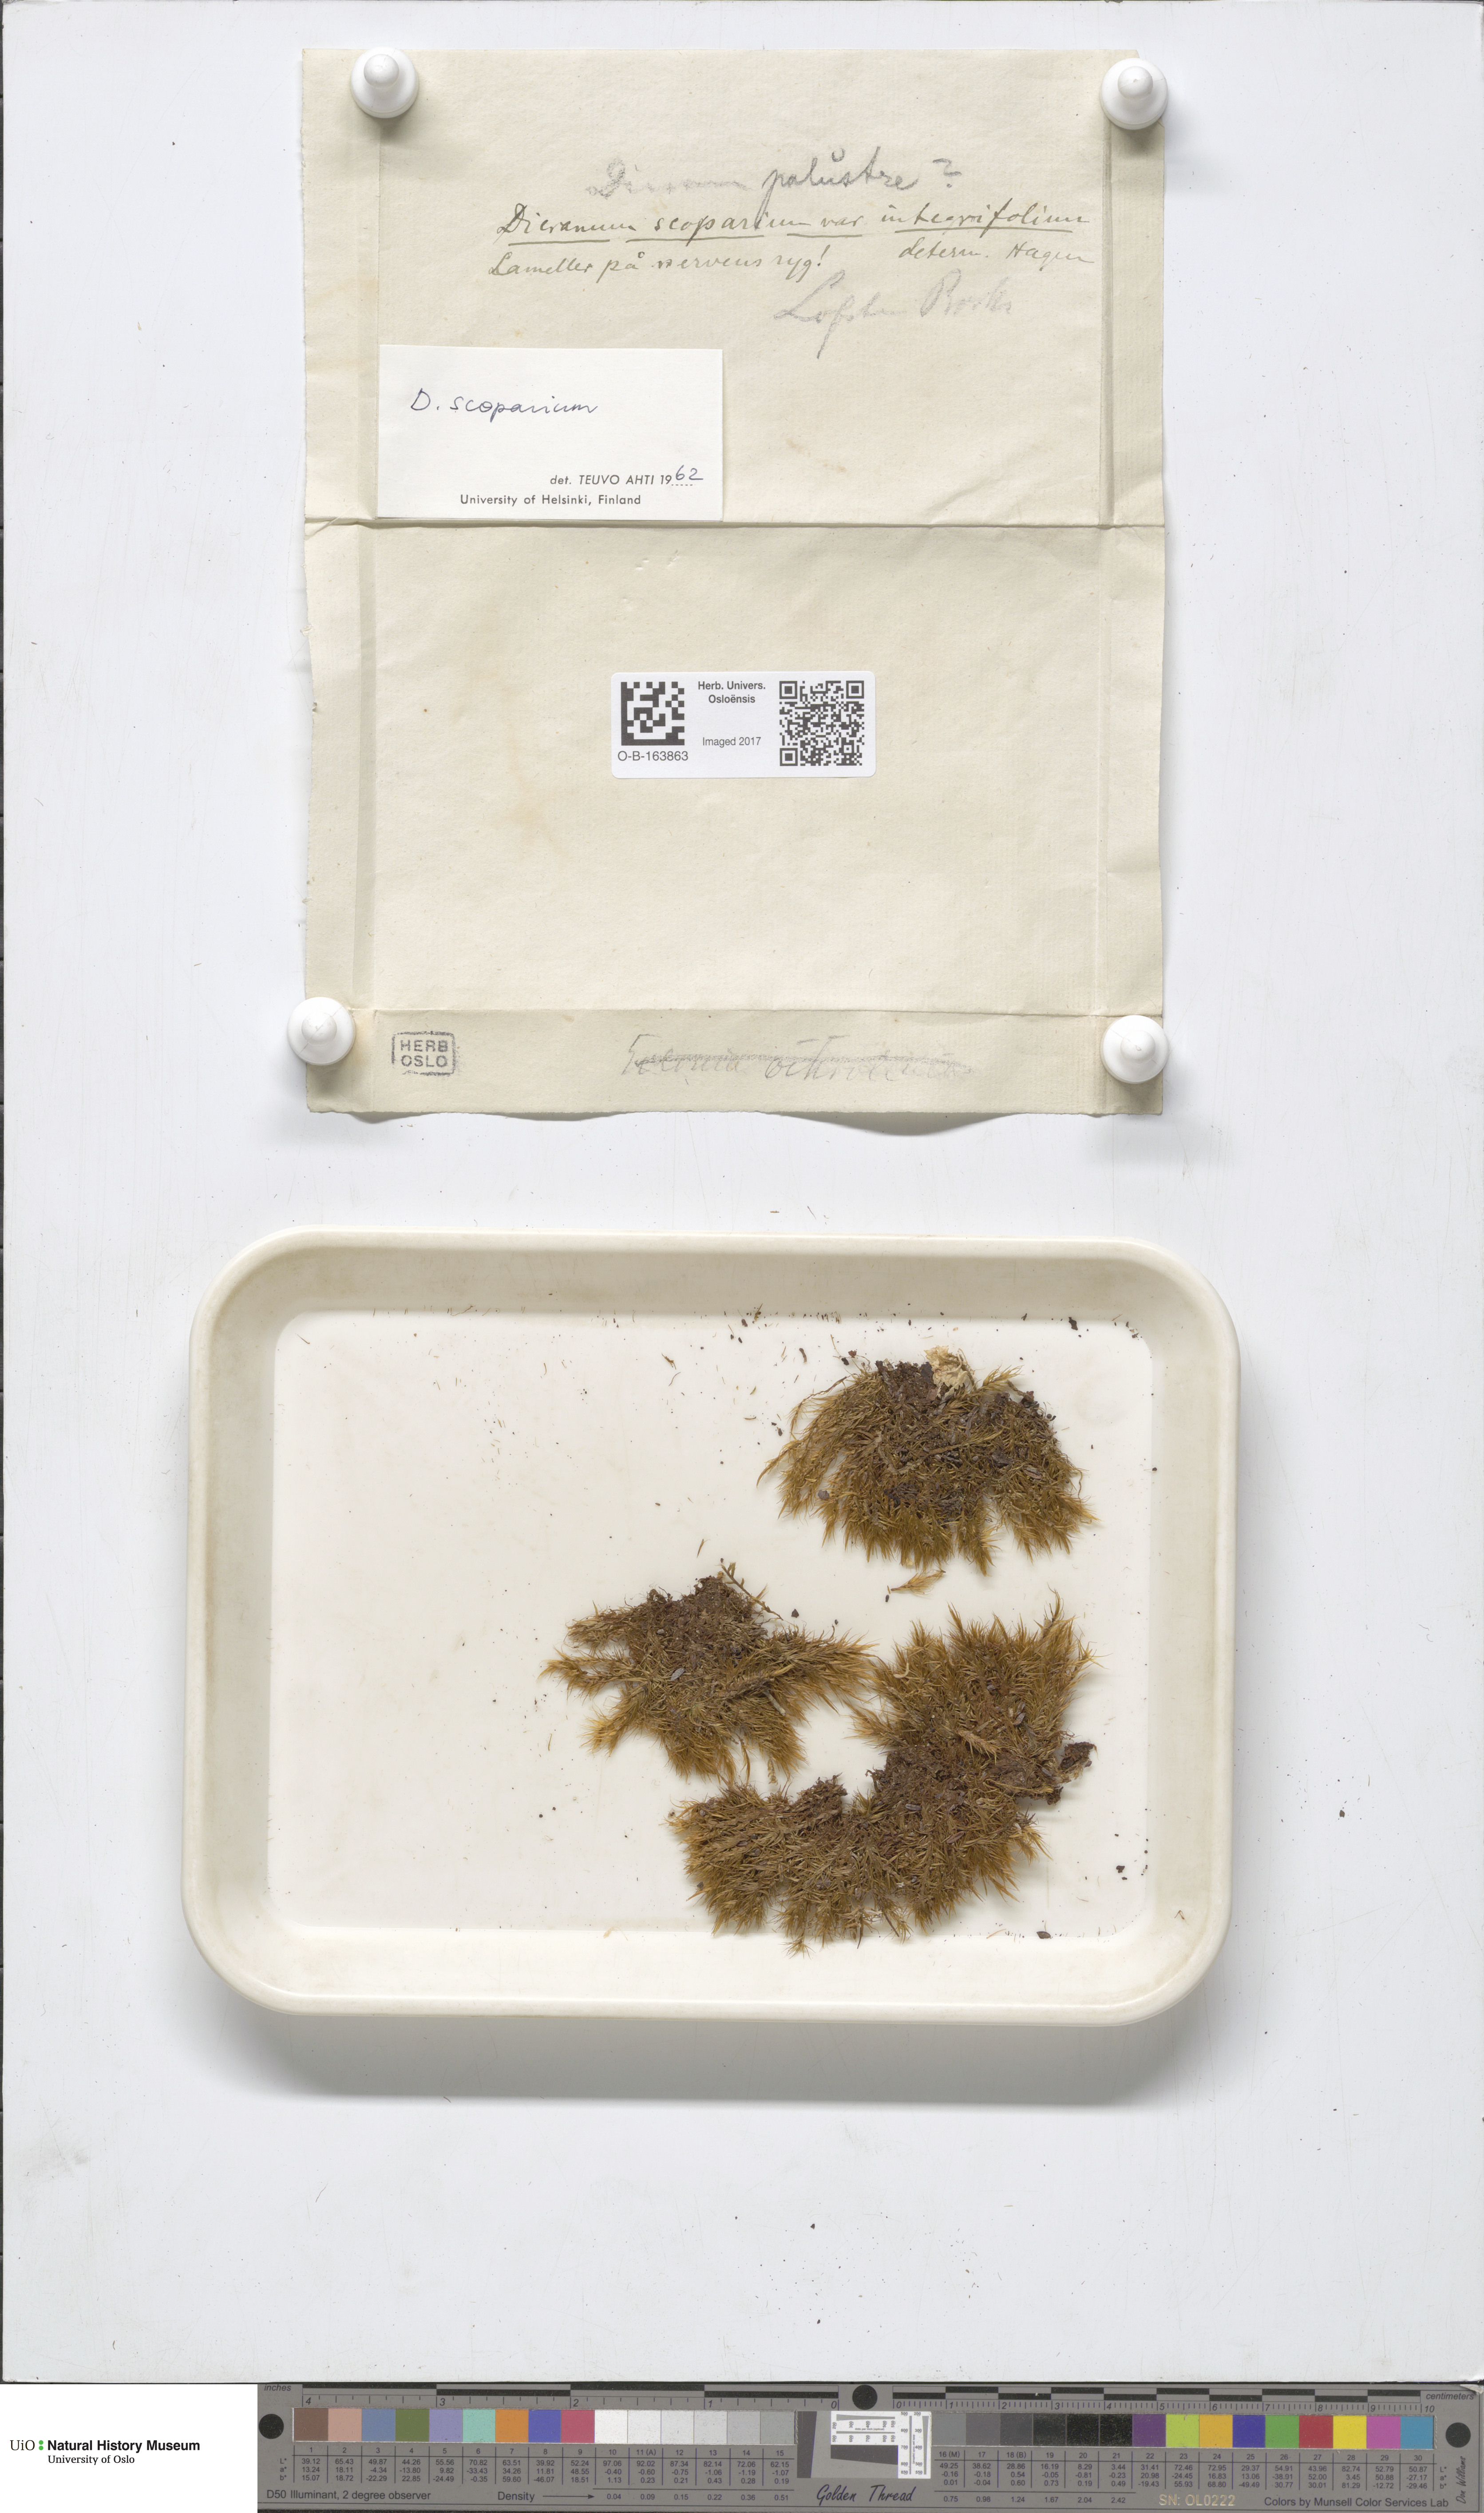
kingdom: Plantae
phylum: Bryophyta
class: Bryopsida
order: Dicranales
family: Dicranaceae
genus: Dicranum
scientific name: Dicranum scoparium
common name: Broom fork-moss
